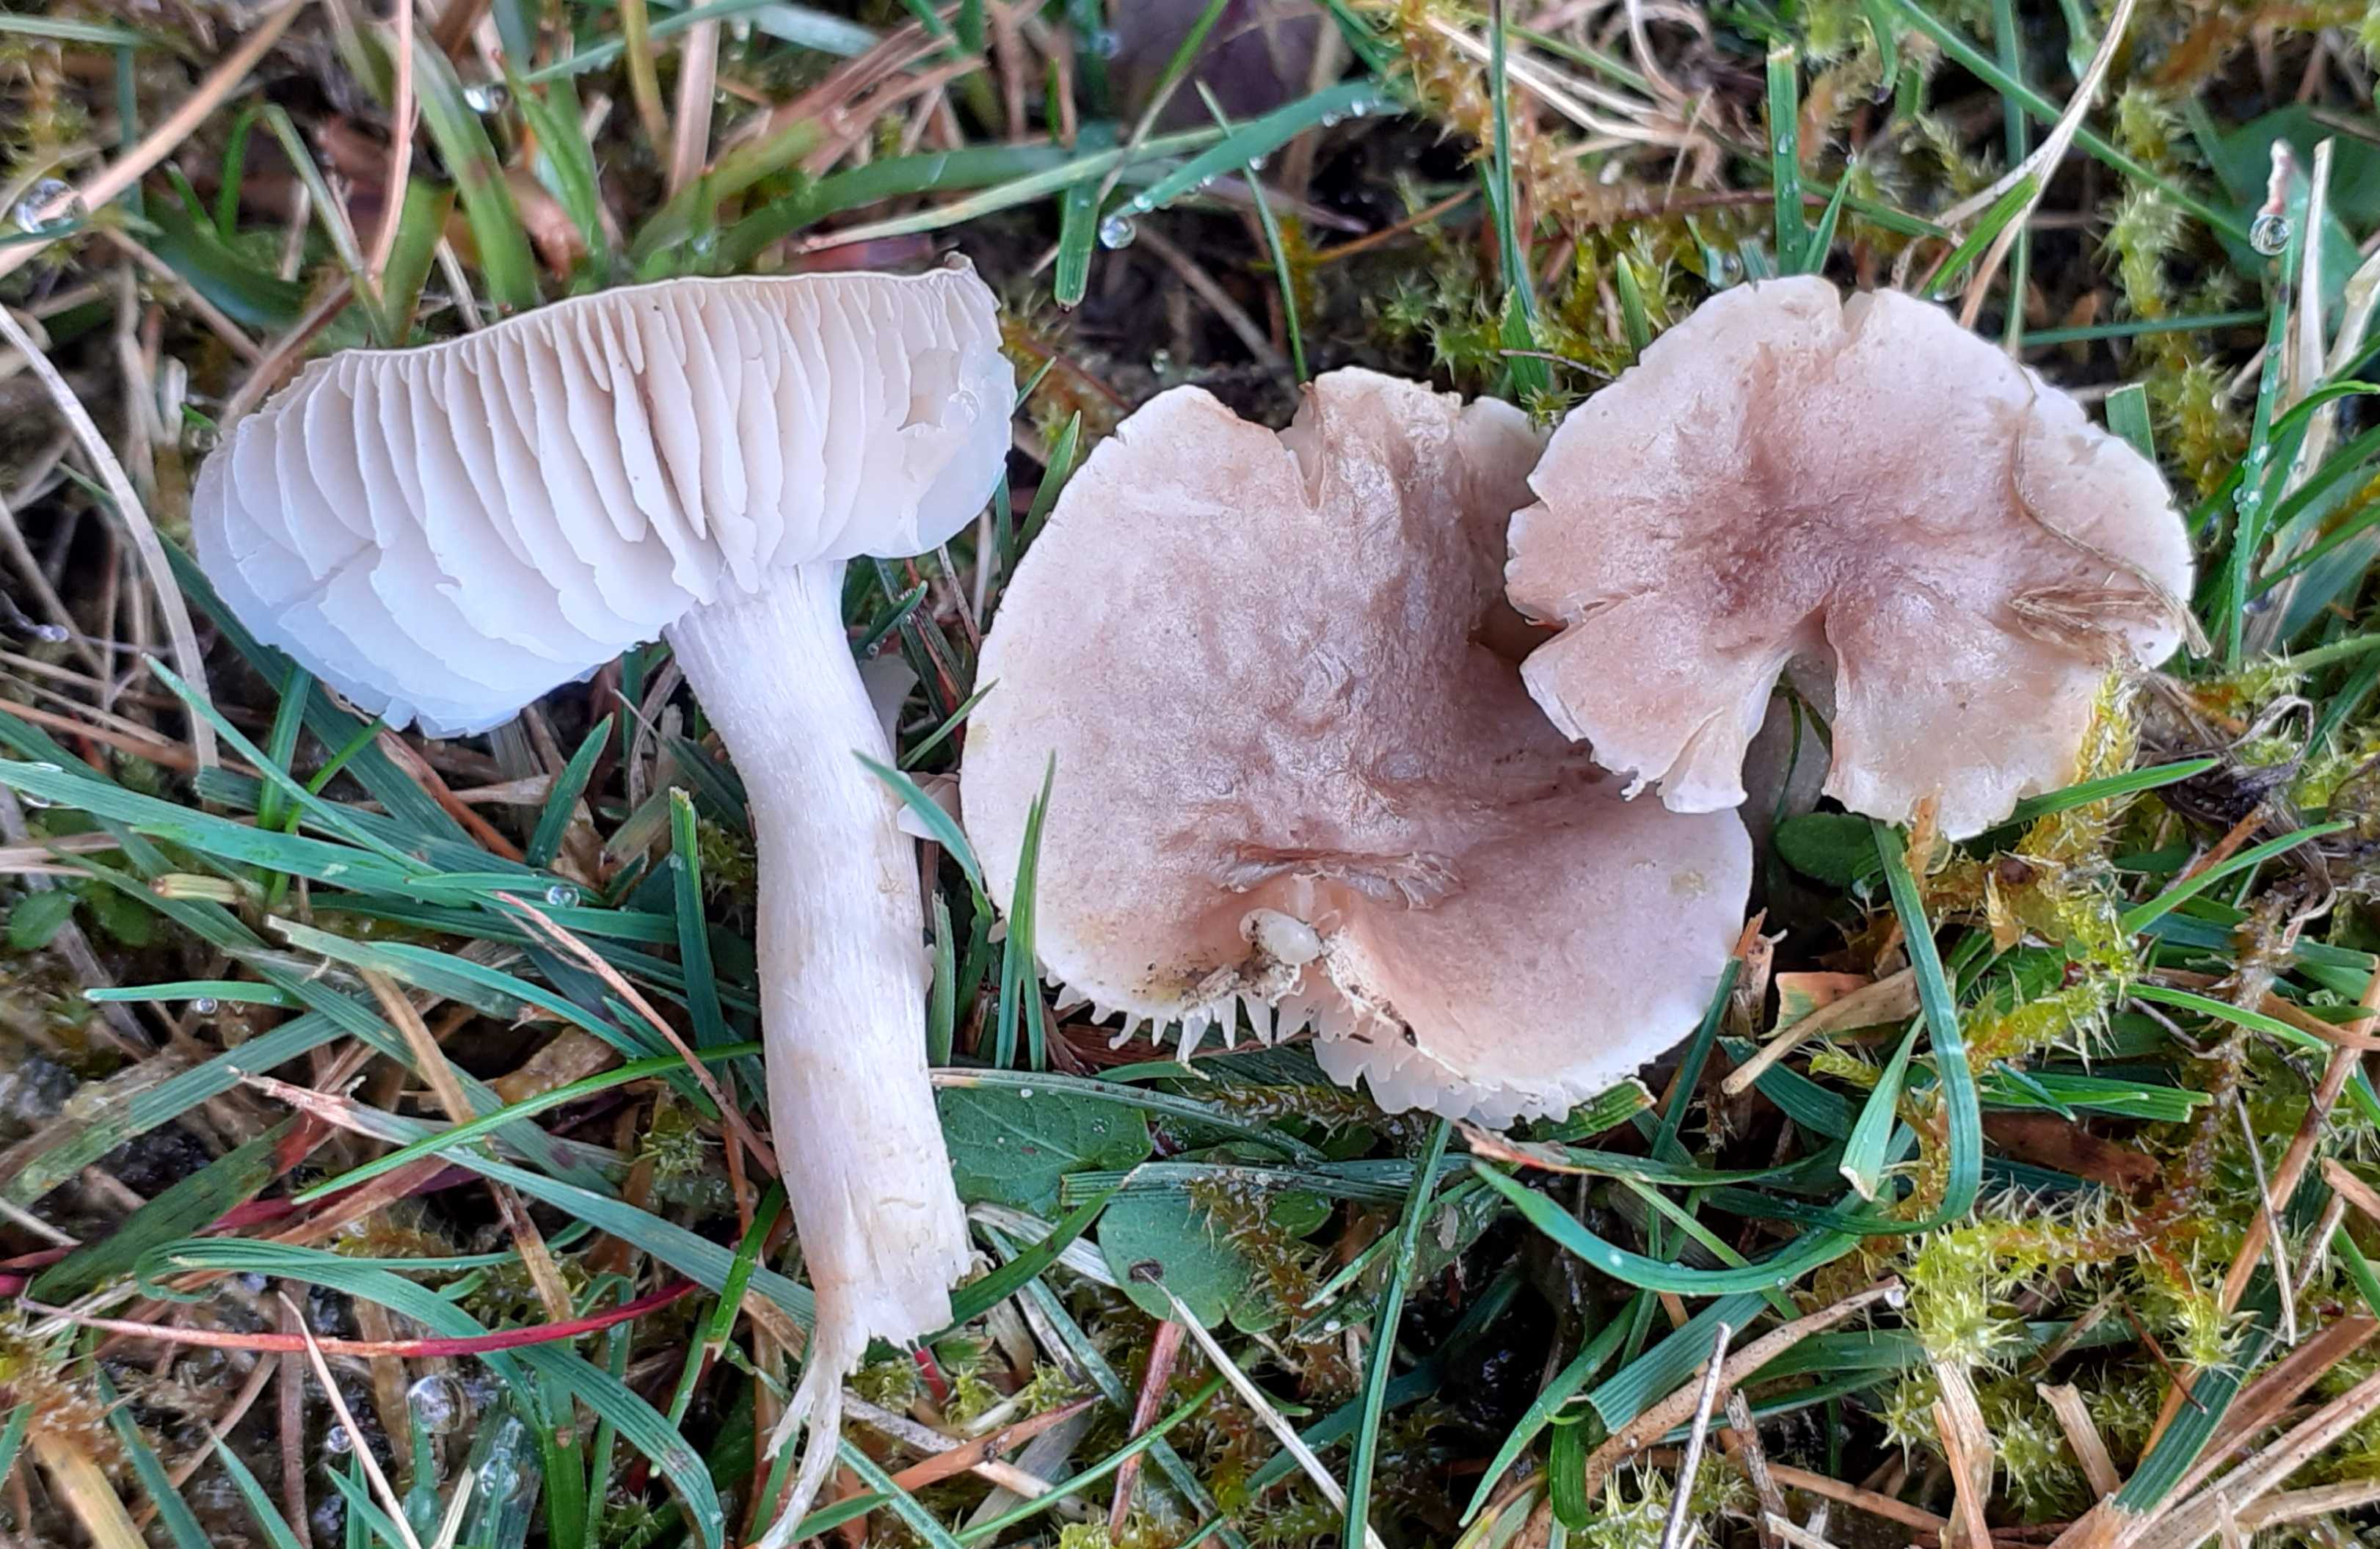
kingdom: Fungi
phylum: Basidiomycota
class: Agaricomycetes
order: Agaricales
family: Tricholomataceae
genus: Dermoloma
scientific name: Dermoloma cuneifolium
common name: eng-nonnehat
